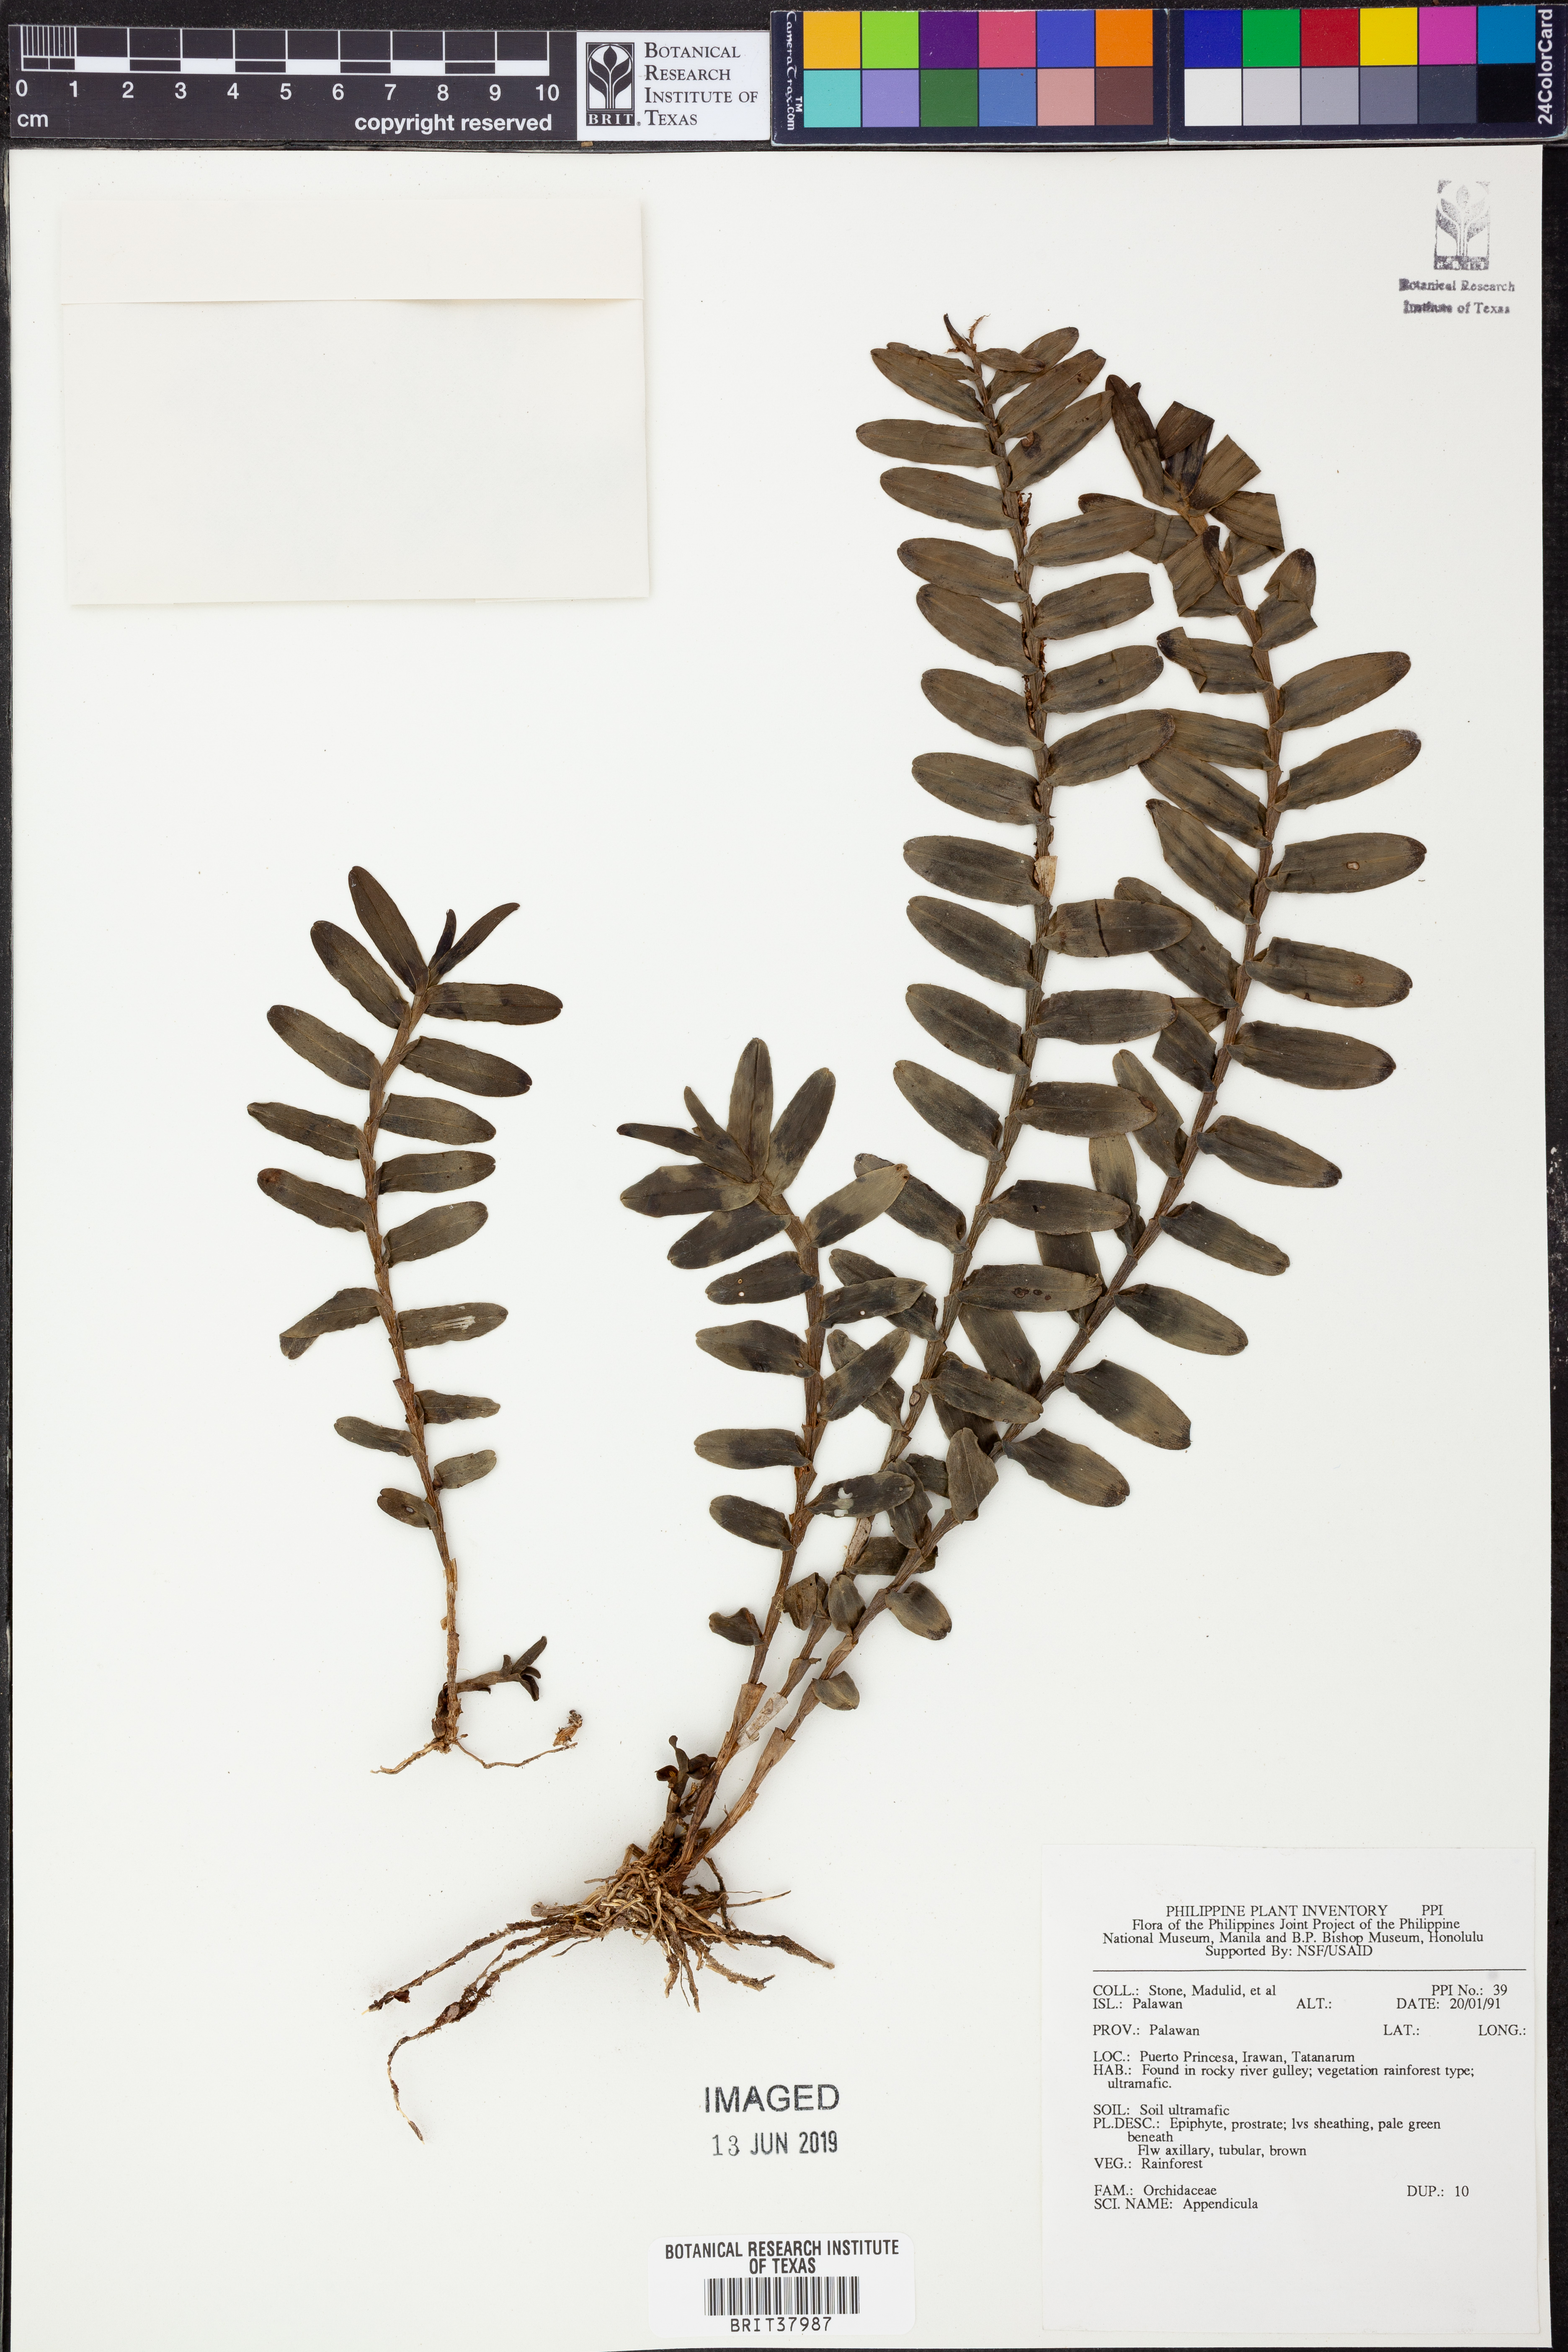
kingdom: Plantae
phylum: Tracheophyta
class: Liliopsida
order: Asparagales
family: Orchidaceae
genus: Appendicula
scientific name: Appendicula
